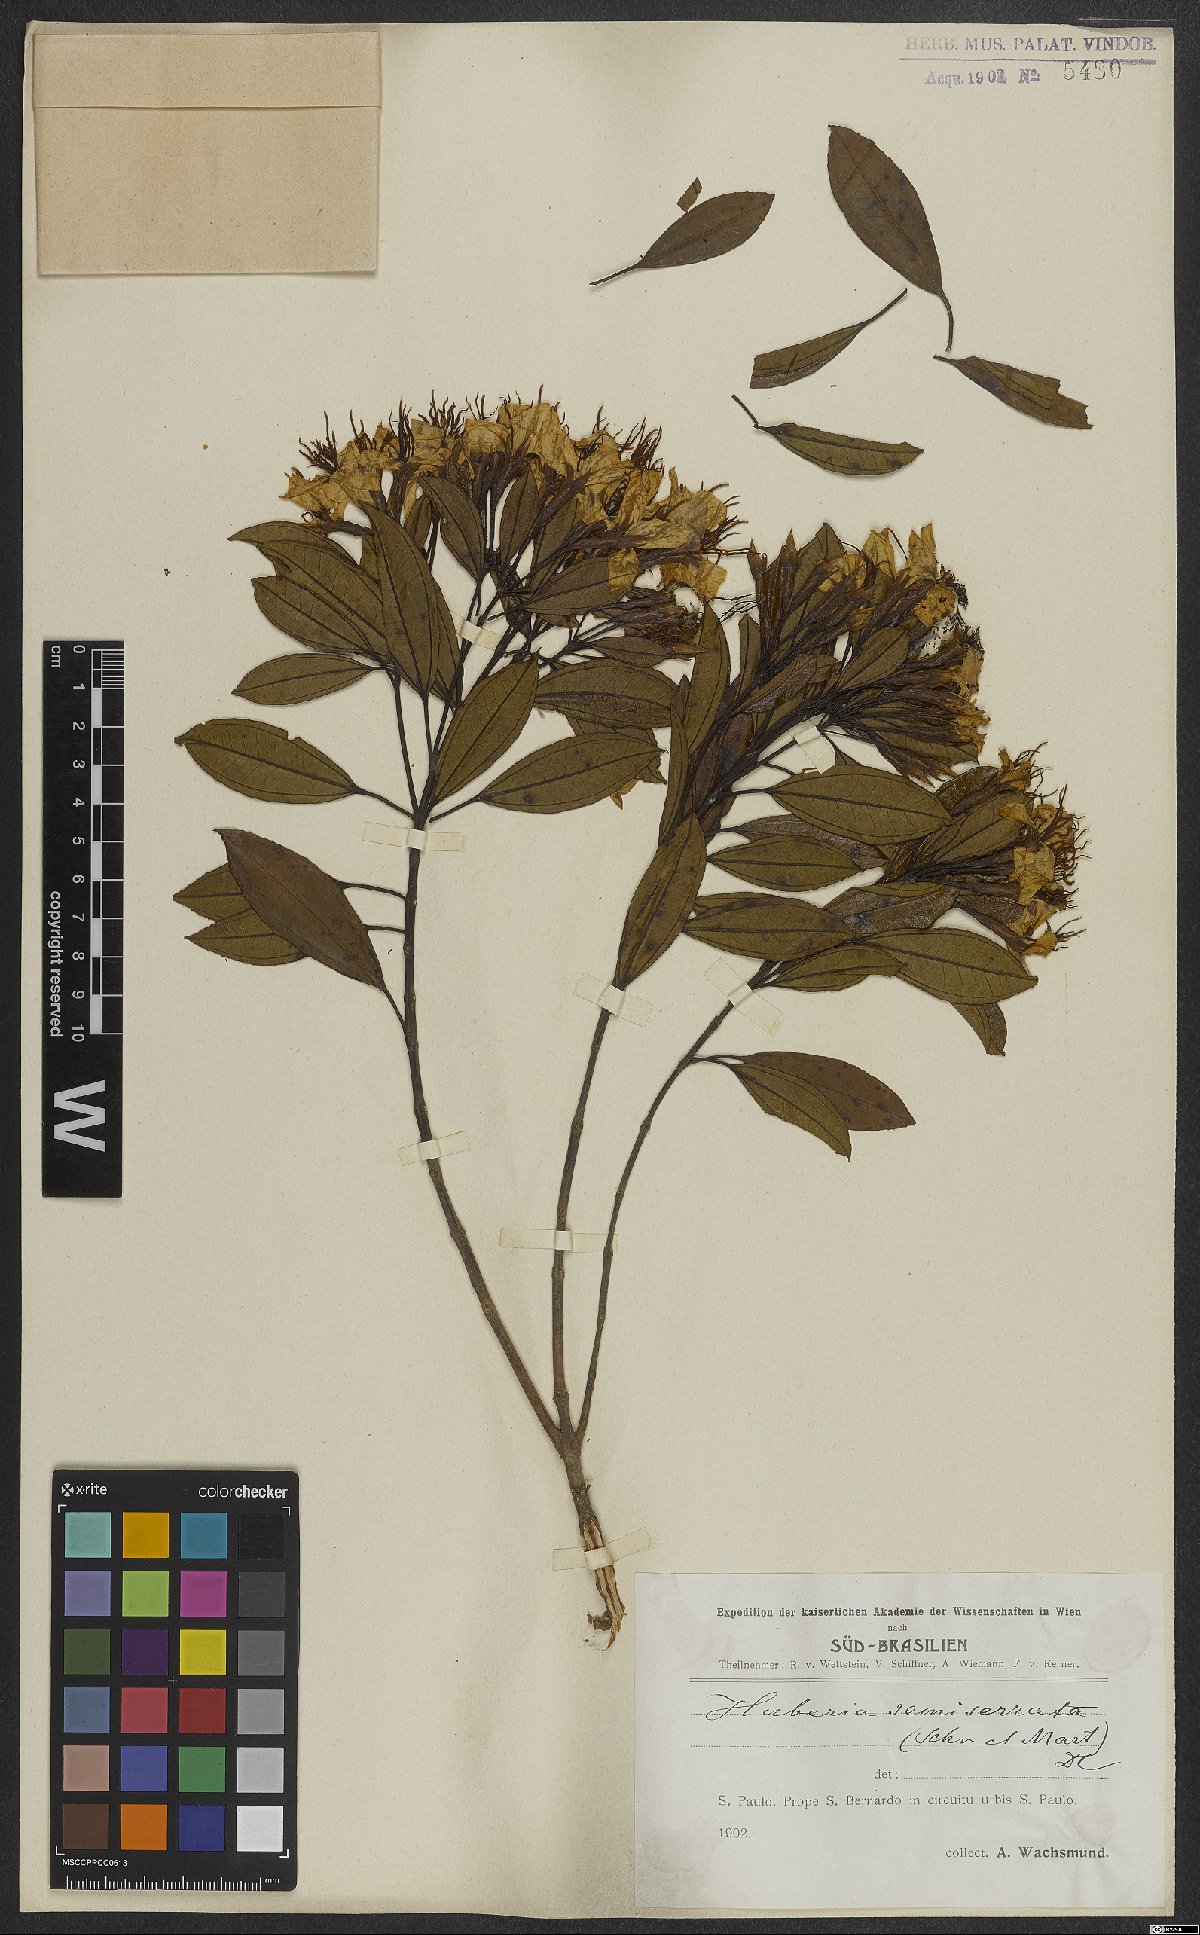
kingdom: Plantae
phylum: Tracheophyta
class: Magnoliopsida
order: Myrtales
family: Melastomataceae
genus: Huberia
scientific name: Huberia semiserrata
